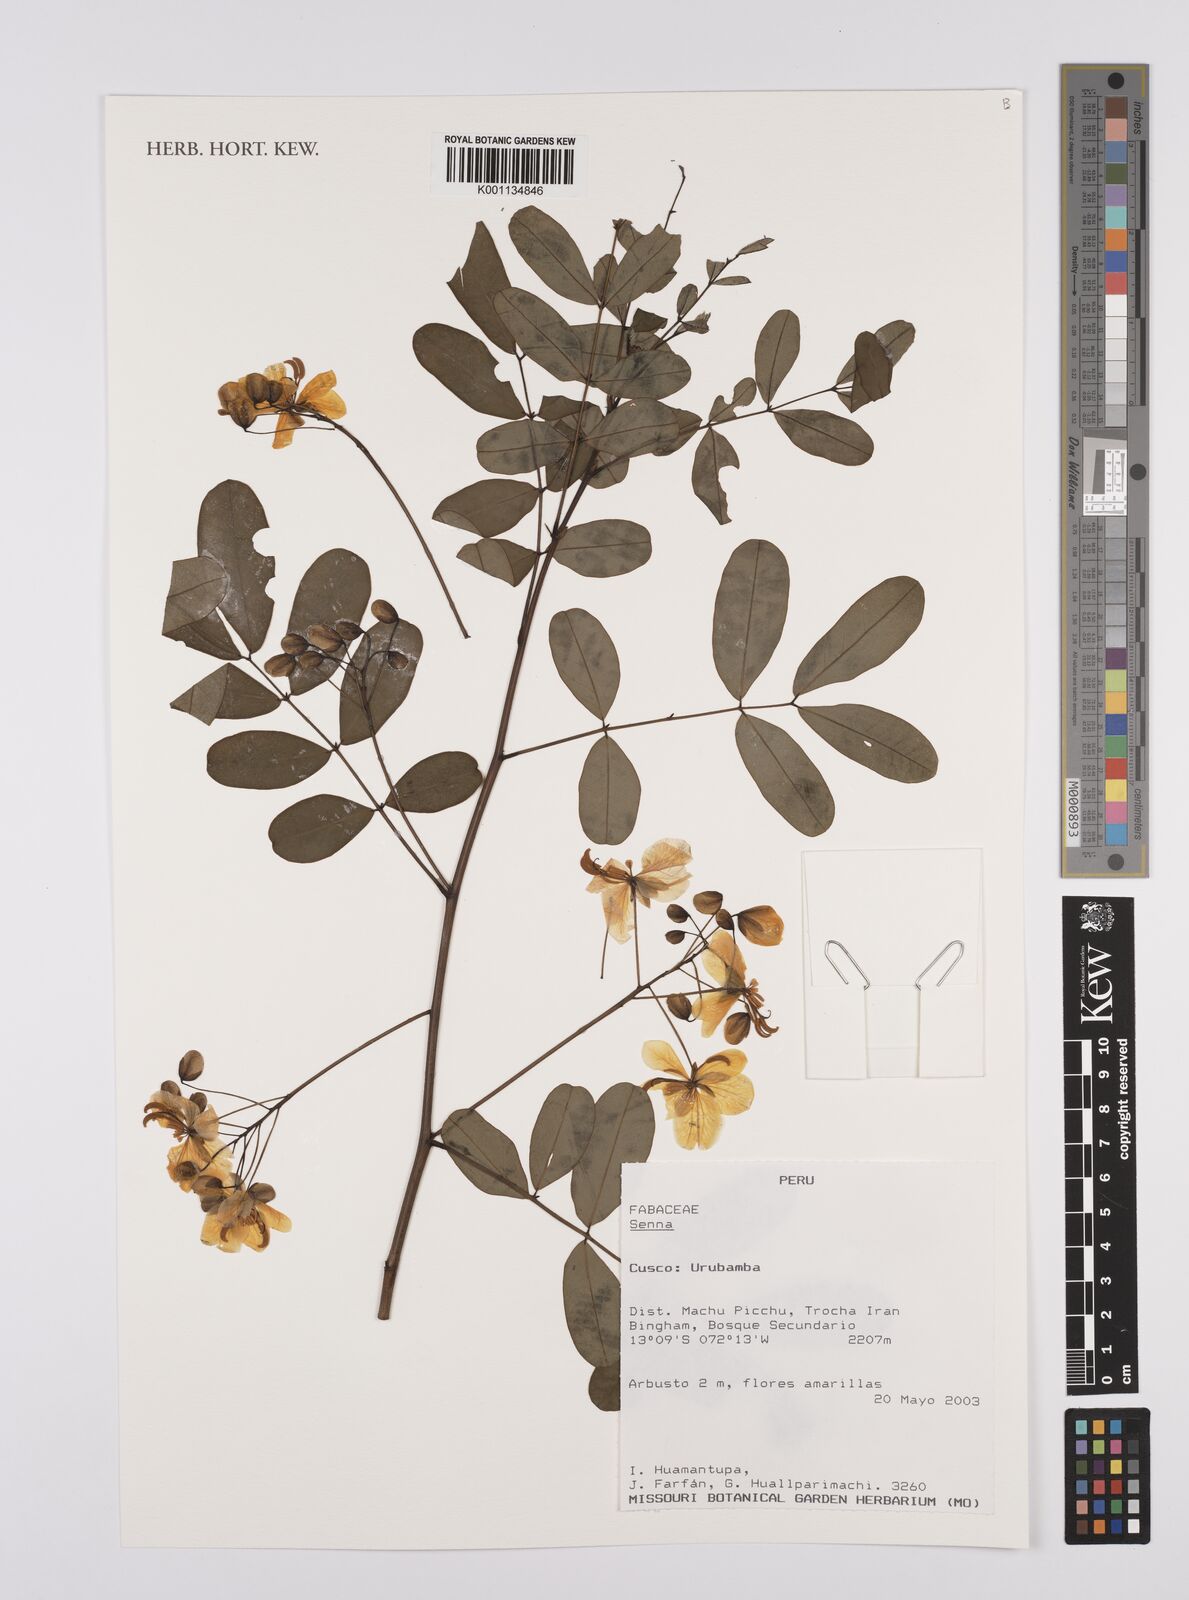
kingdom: Plantae
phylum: Tracheophyta
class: Magnoliopsida
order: Fabales
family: Fabaceae
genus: Senna
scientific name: Senna
